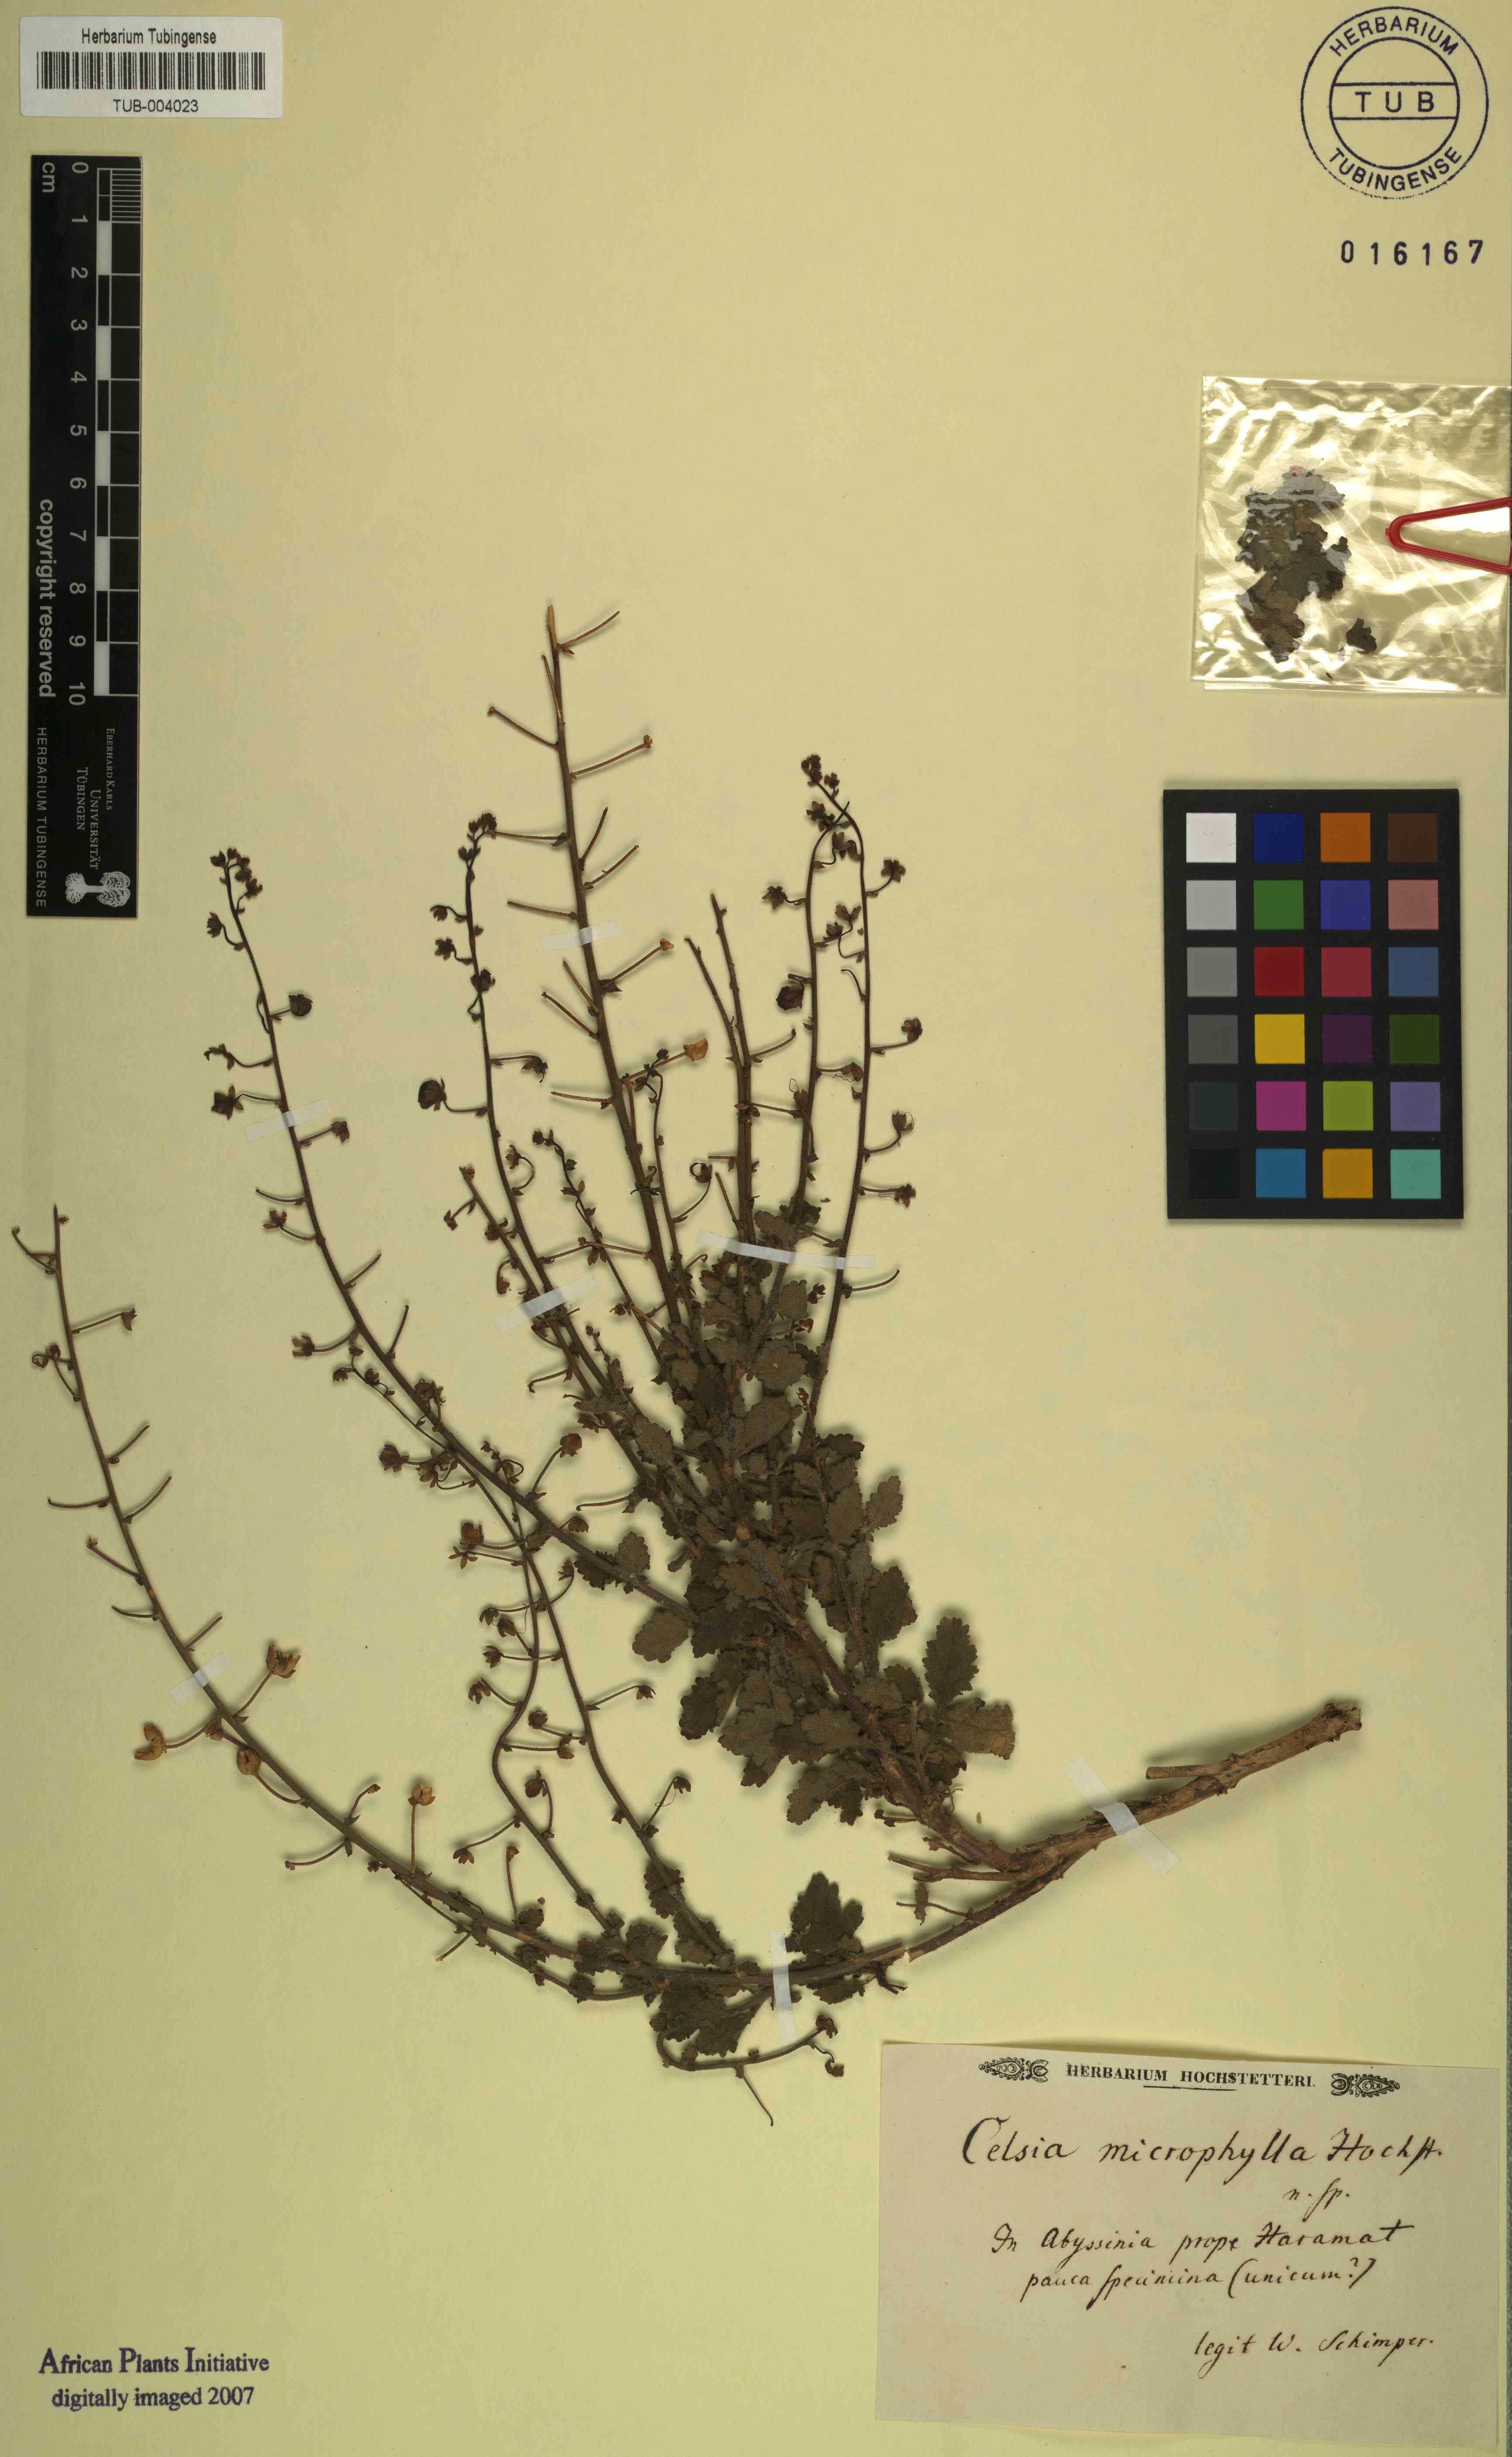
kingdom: Plantae
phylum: Tracheophyta
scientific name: Tracheophyta
